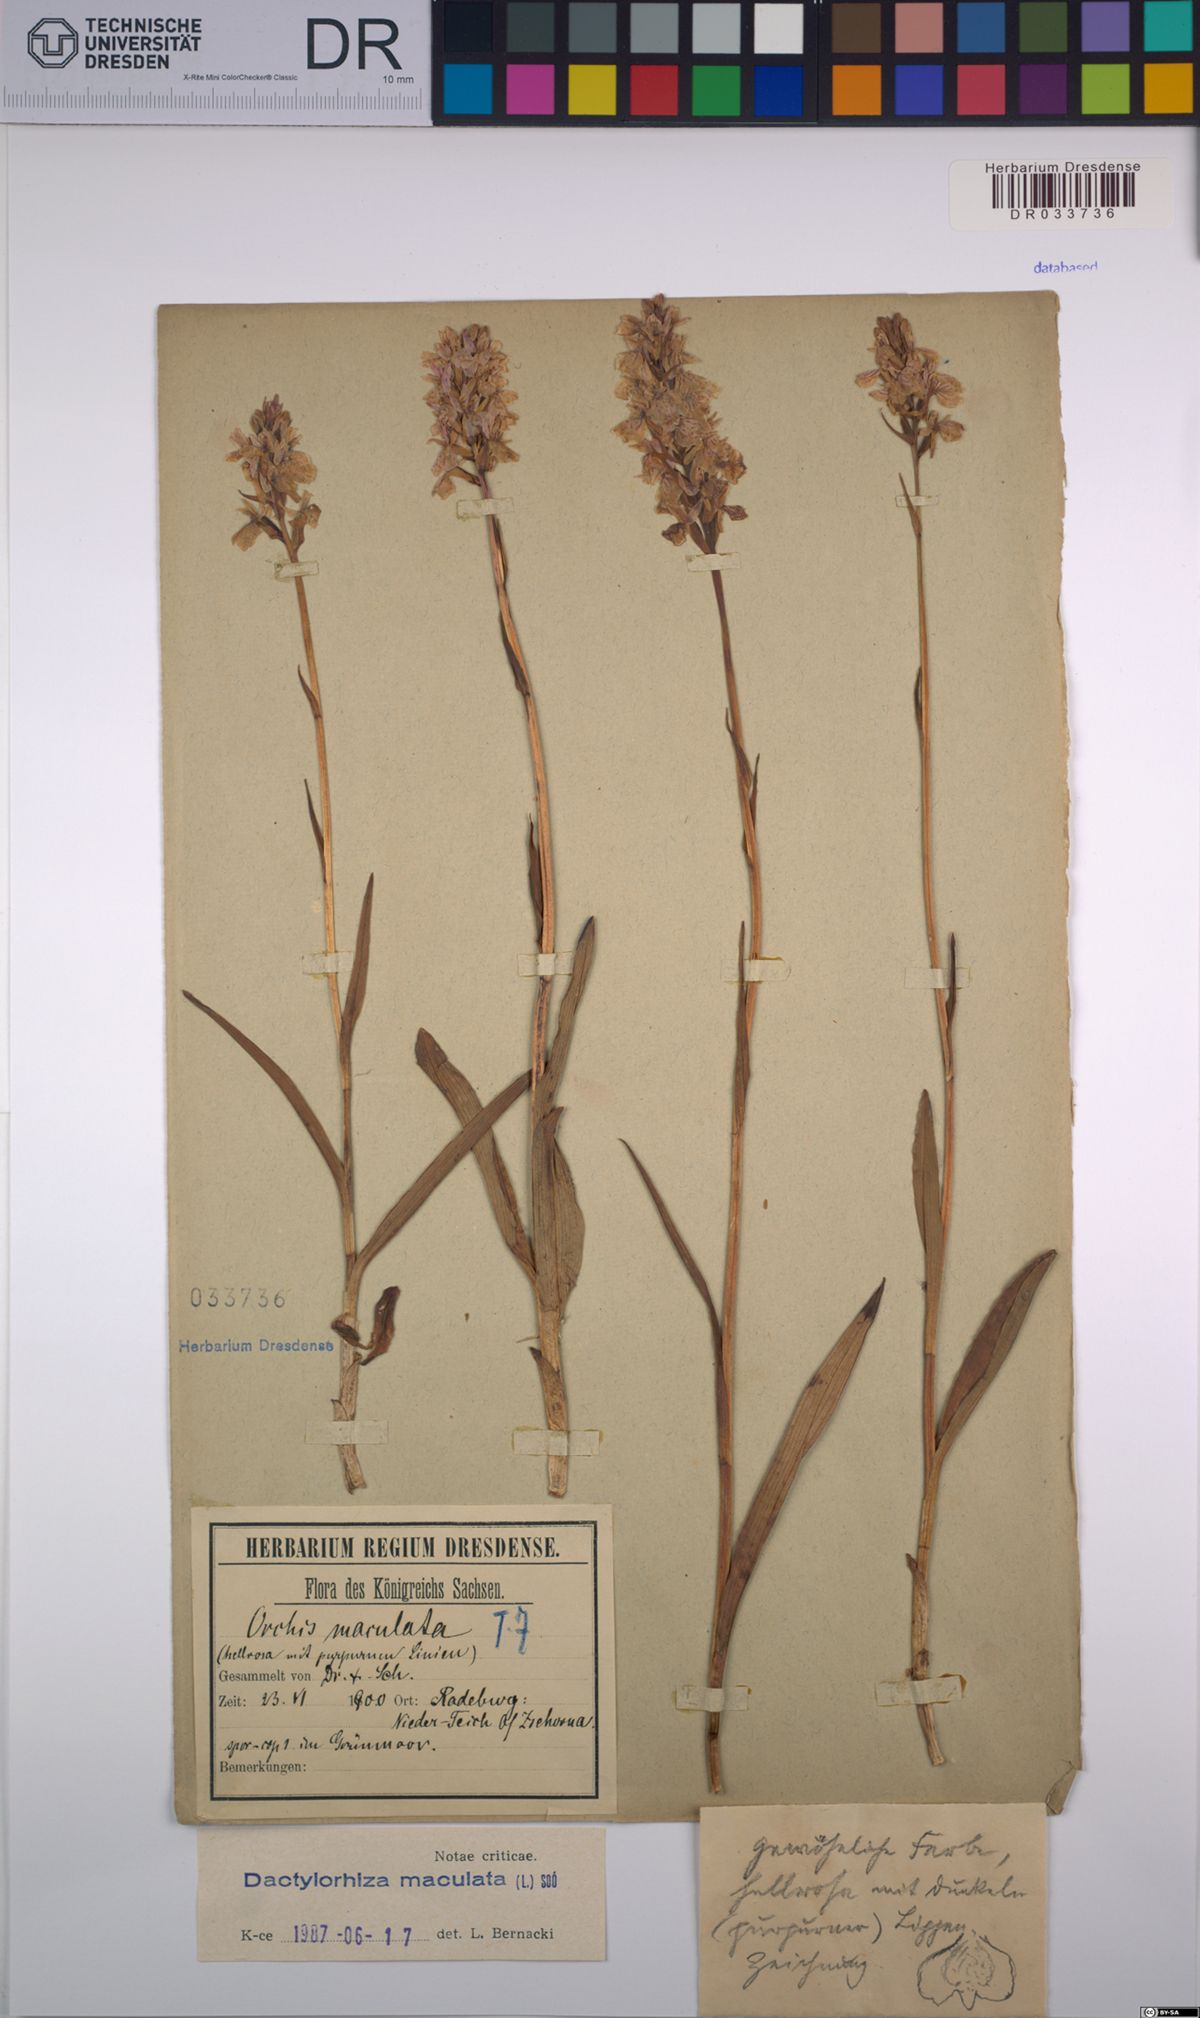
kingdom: Plantae
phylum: Tracheophyta
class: Liliopsida
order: Asparagales
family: Orchidaceae
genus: Dactylorhiza
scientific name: Dactylorhiza maculata
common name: Heath spotted-orchid
